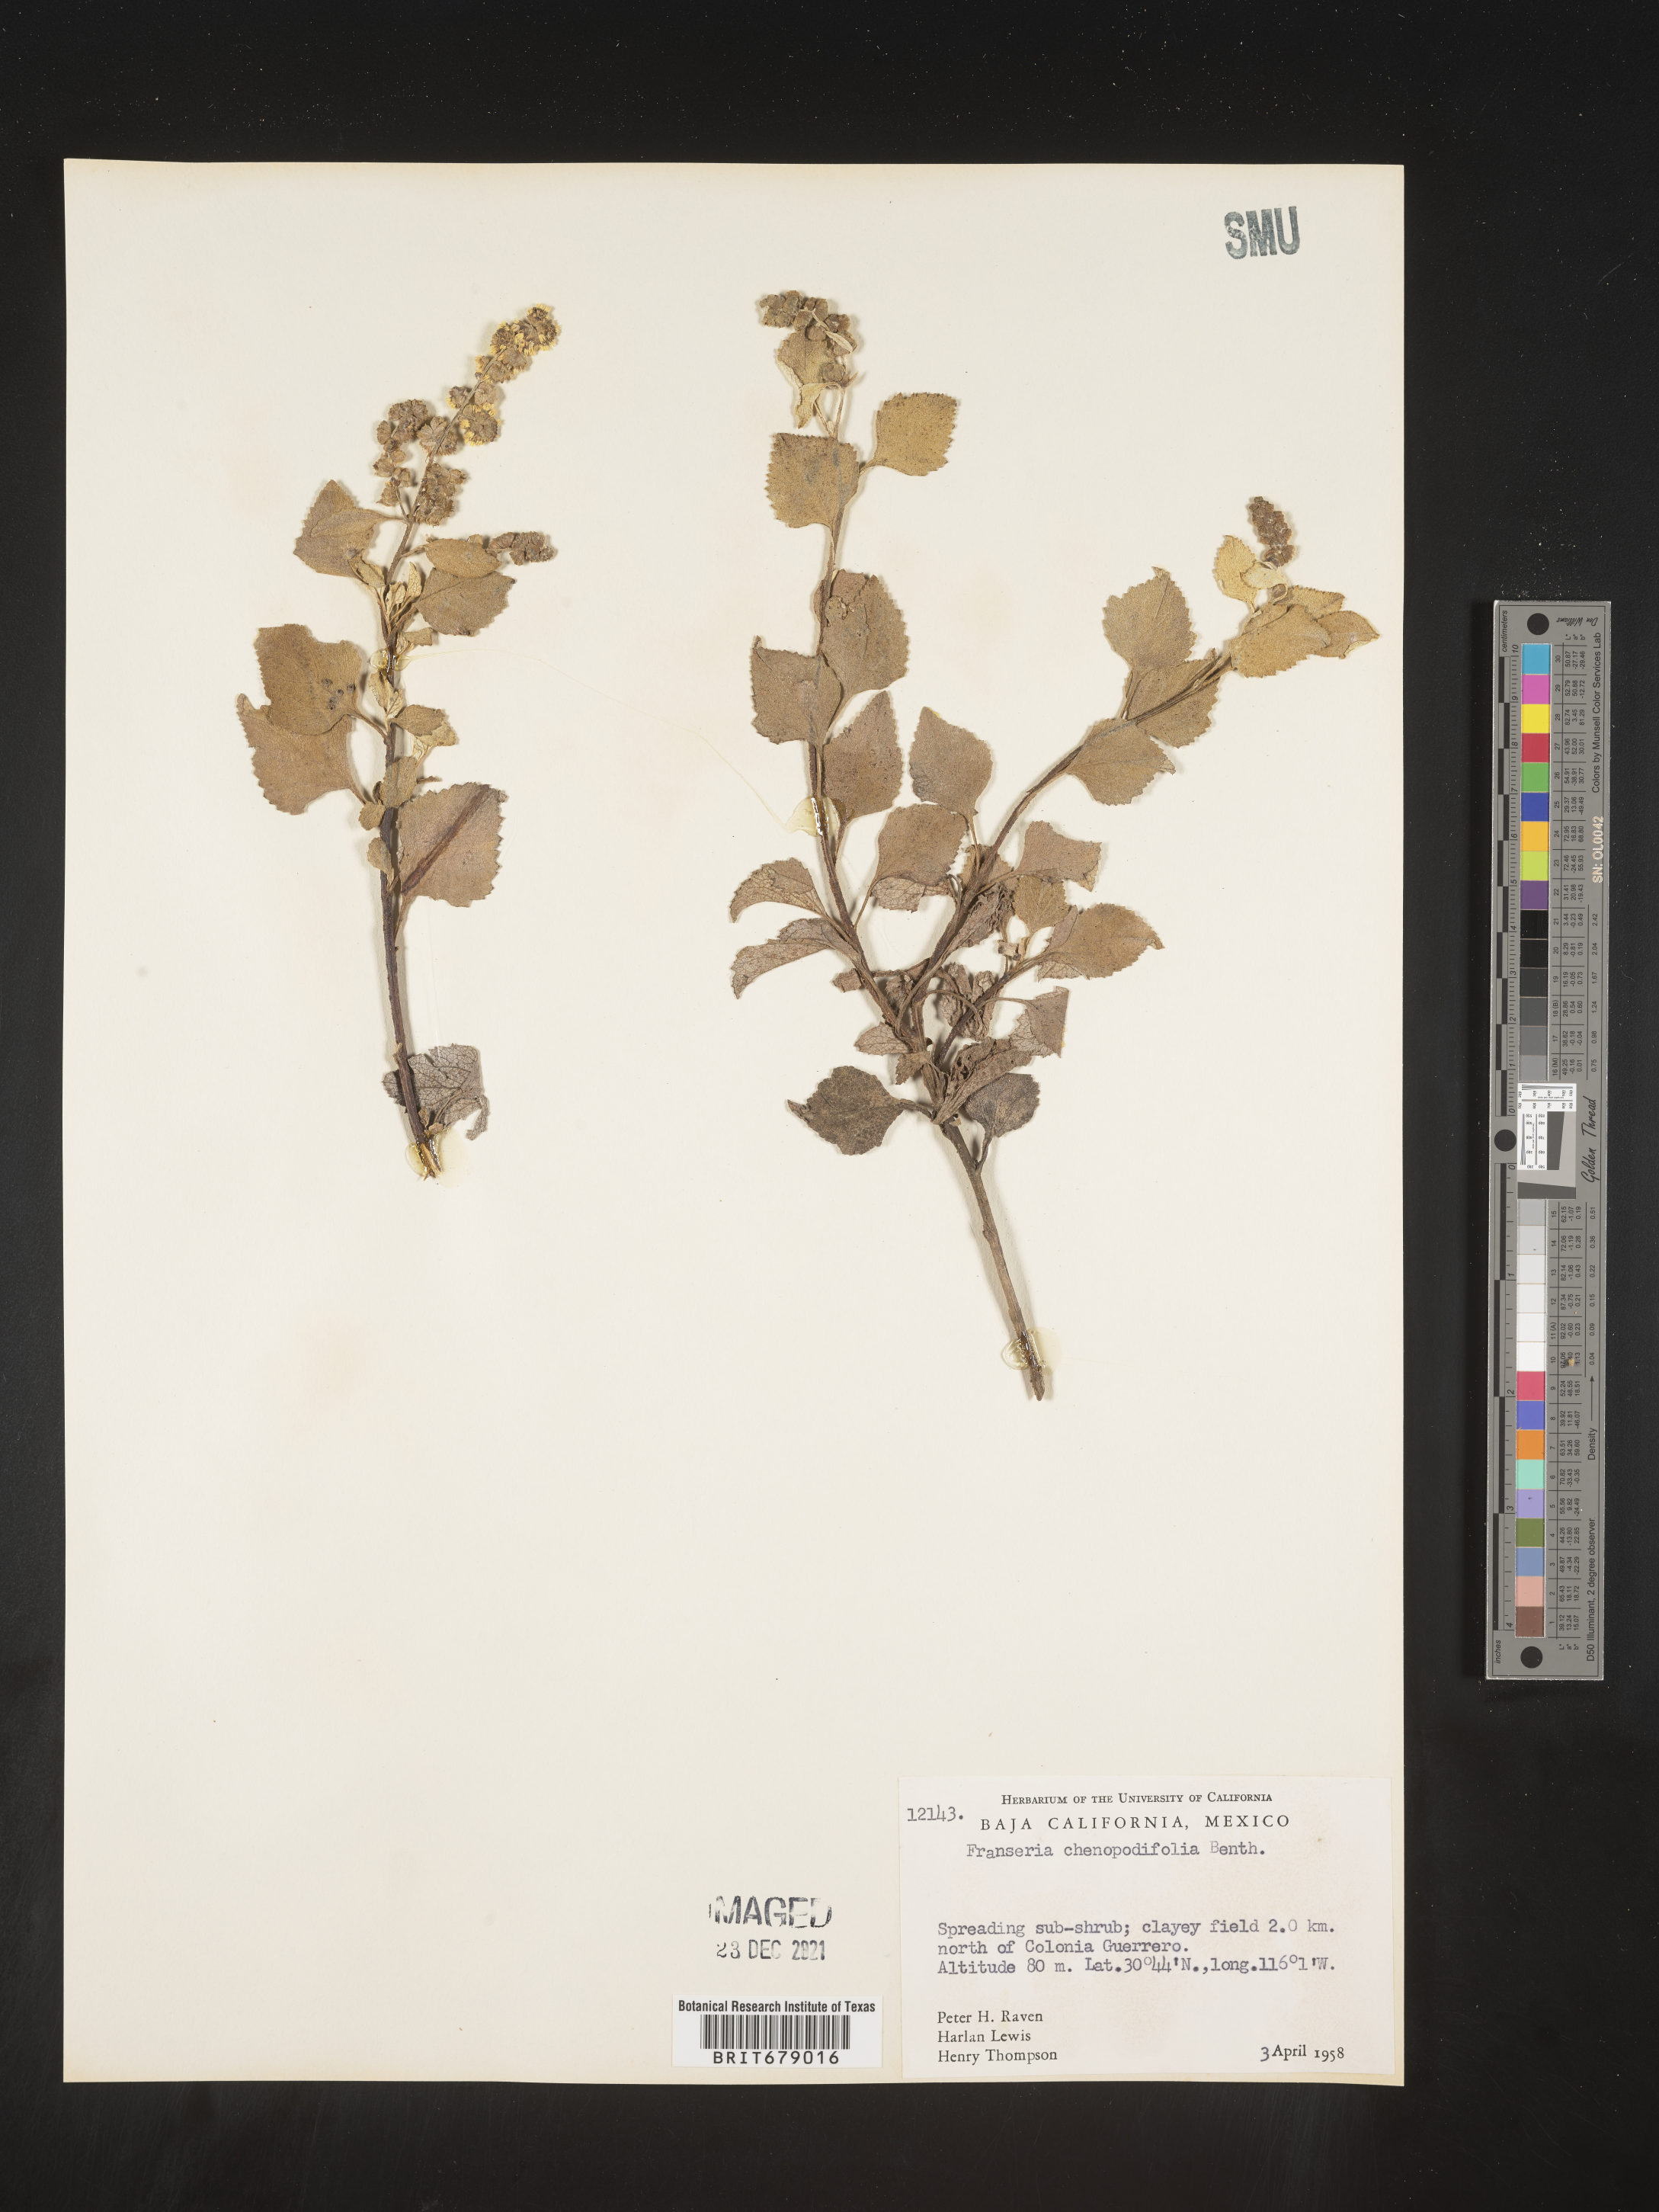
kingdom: Plantae
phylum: Tracheophyta
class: Magnoliopsida
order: Asterales
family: Asteraceae
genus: Ambrosia
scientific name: Ambrosia
